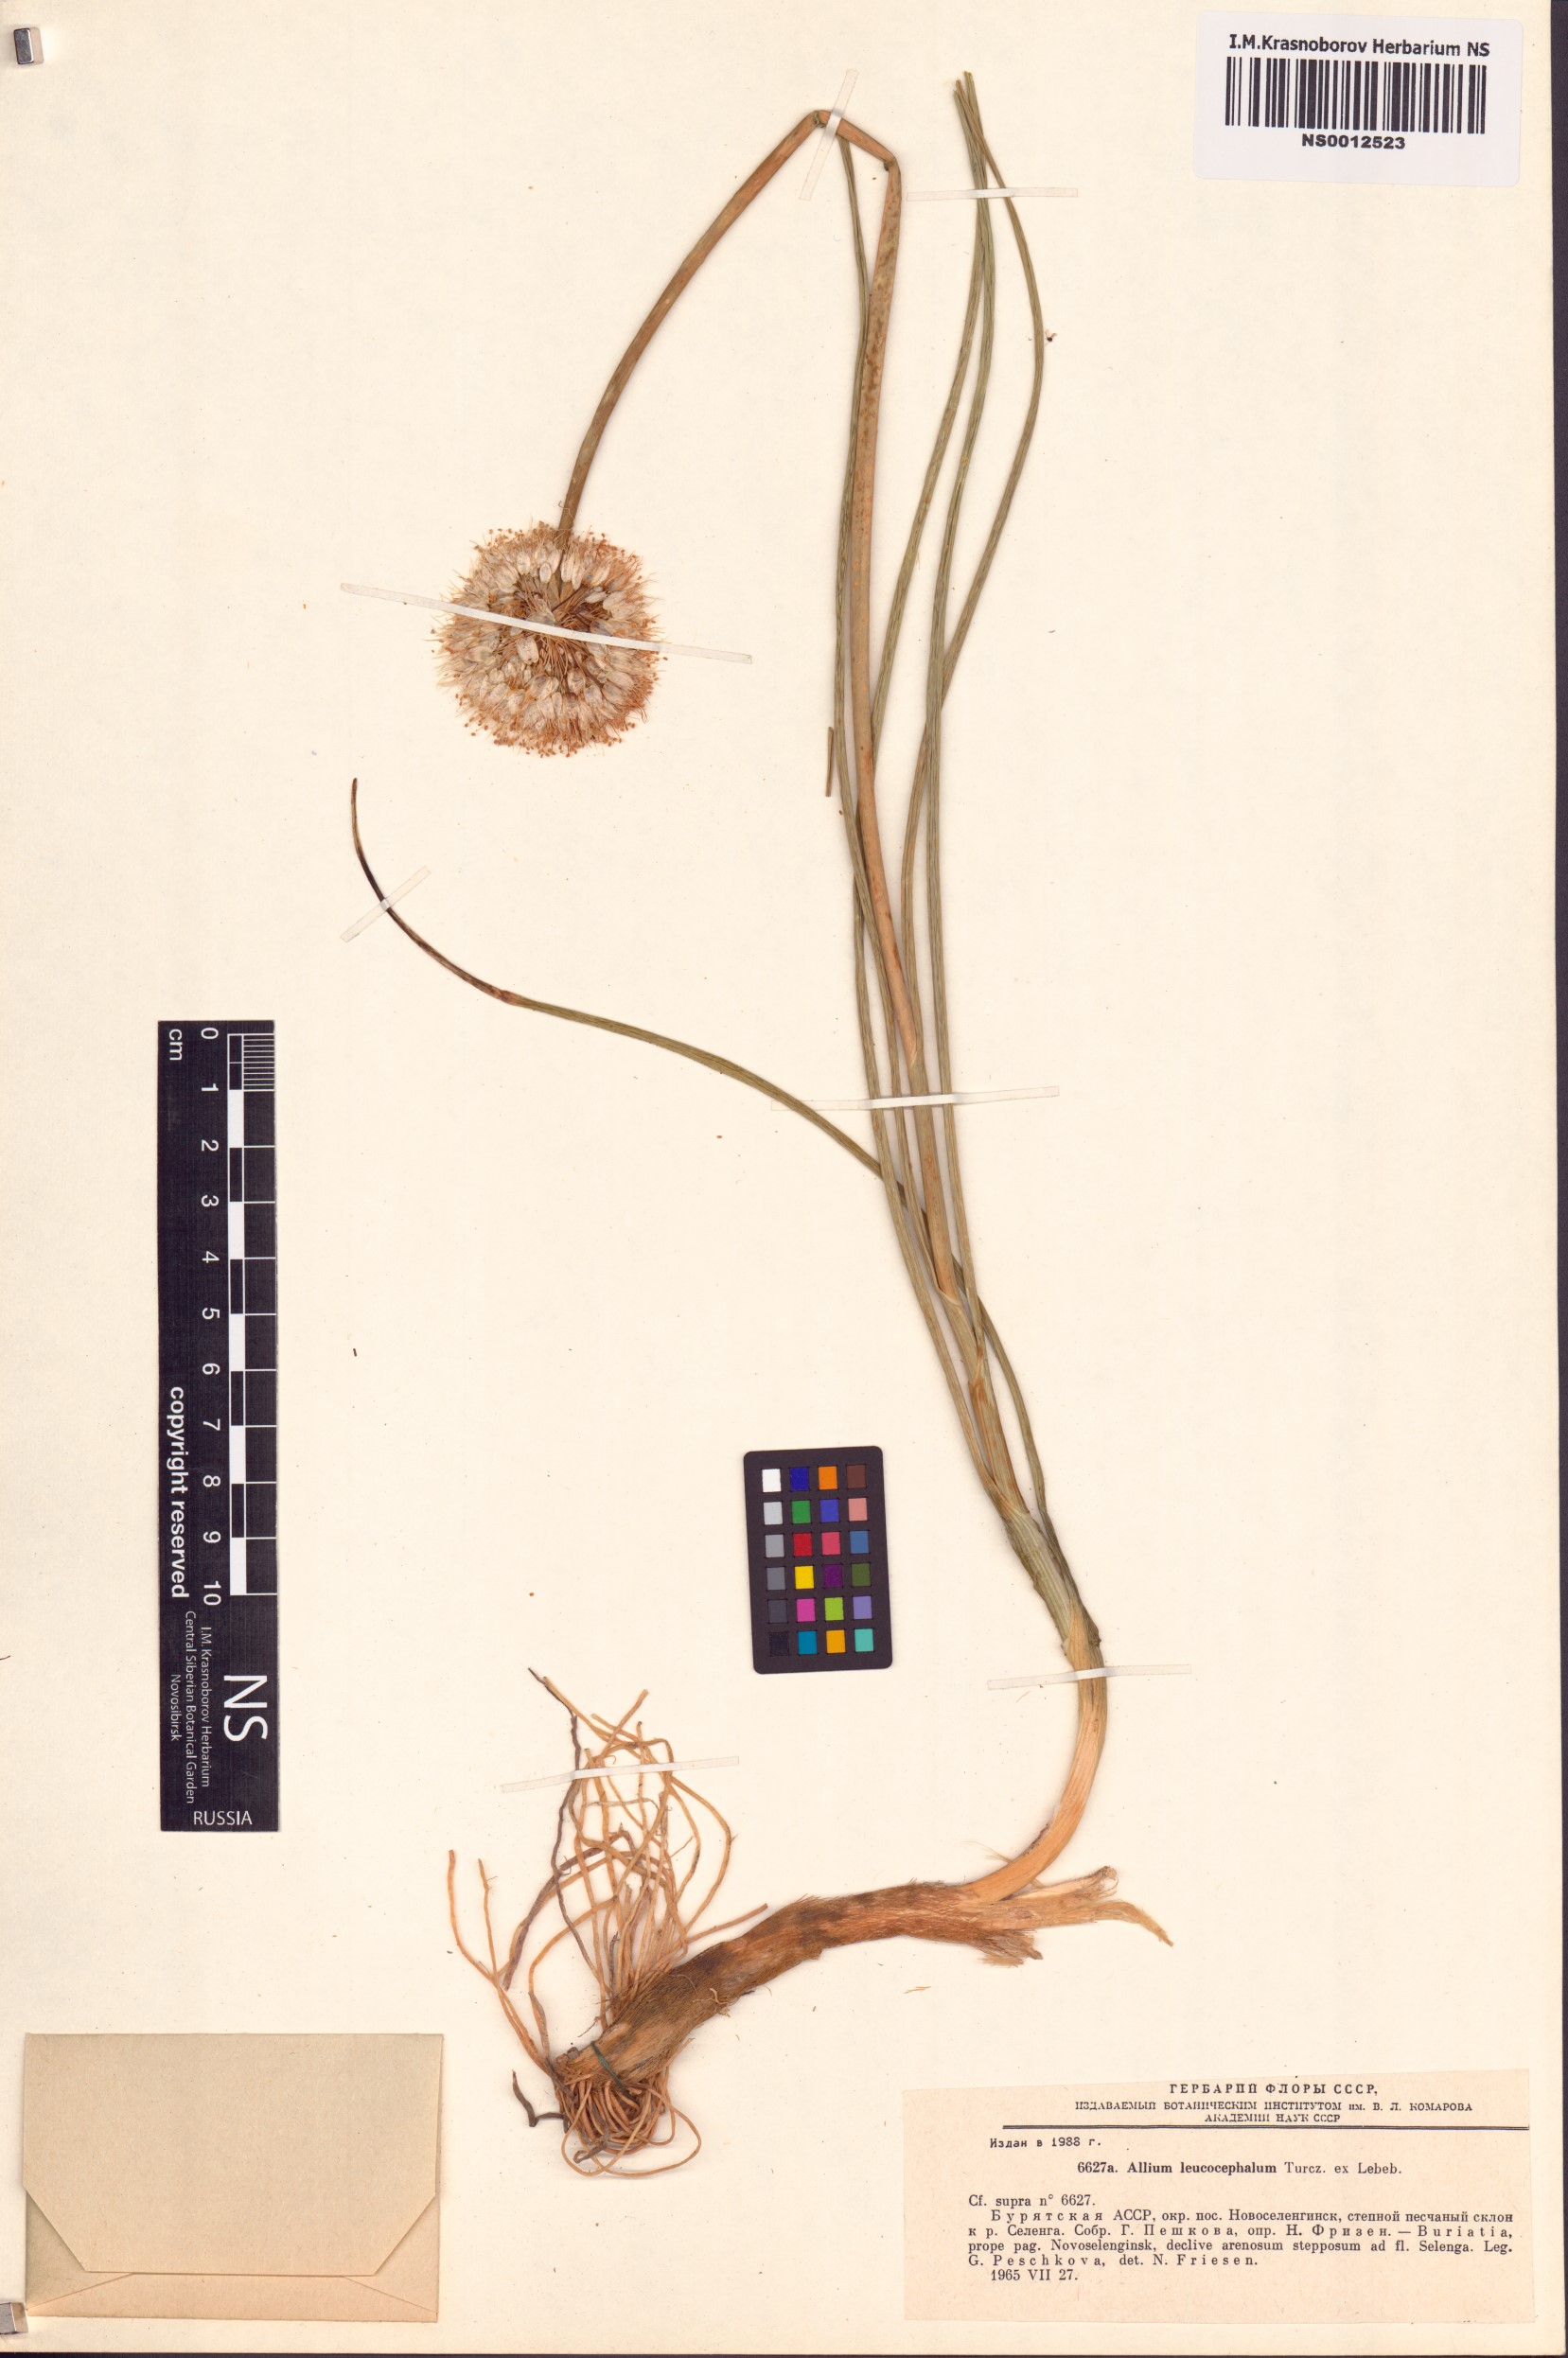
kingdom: Plantae
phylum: Tracheophyta
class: Liliopsida
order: Asparagales
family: Amaryllidaceae
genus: Allium
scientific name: Allium leucocephalum
